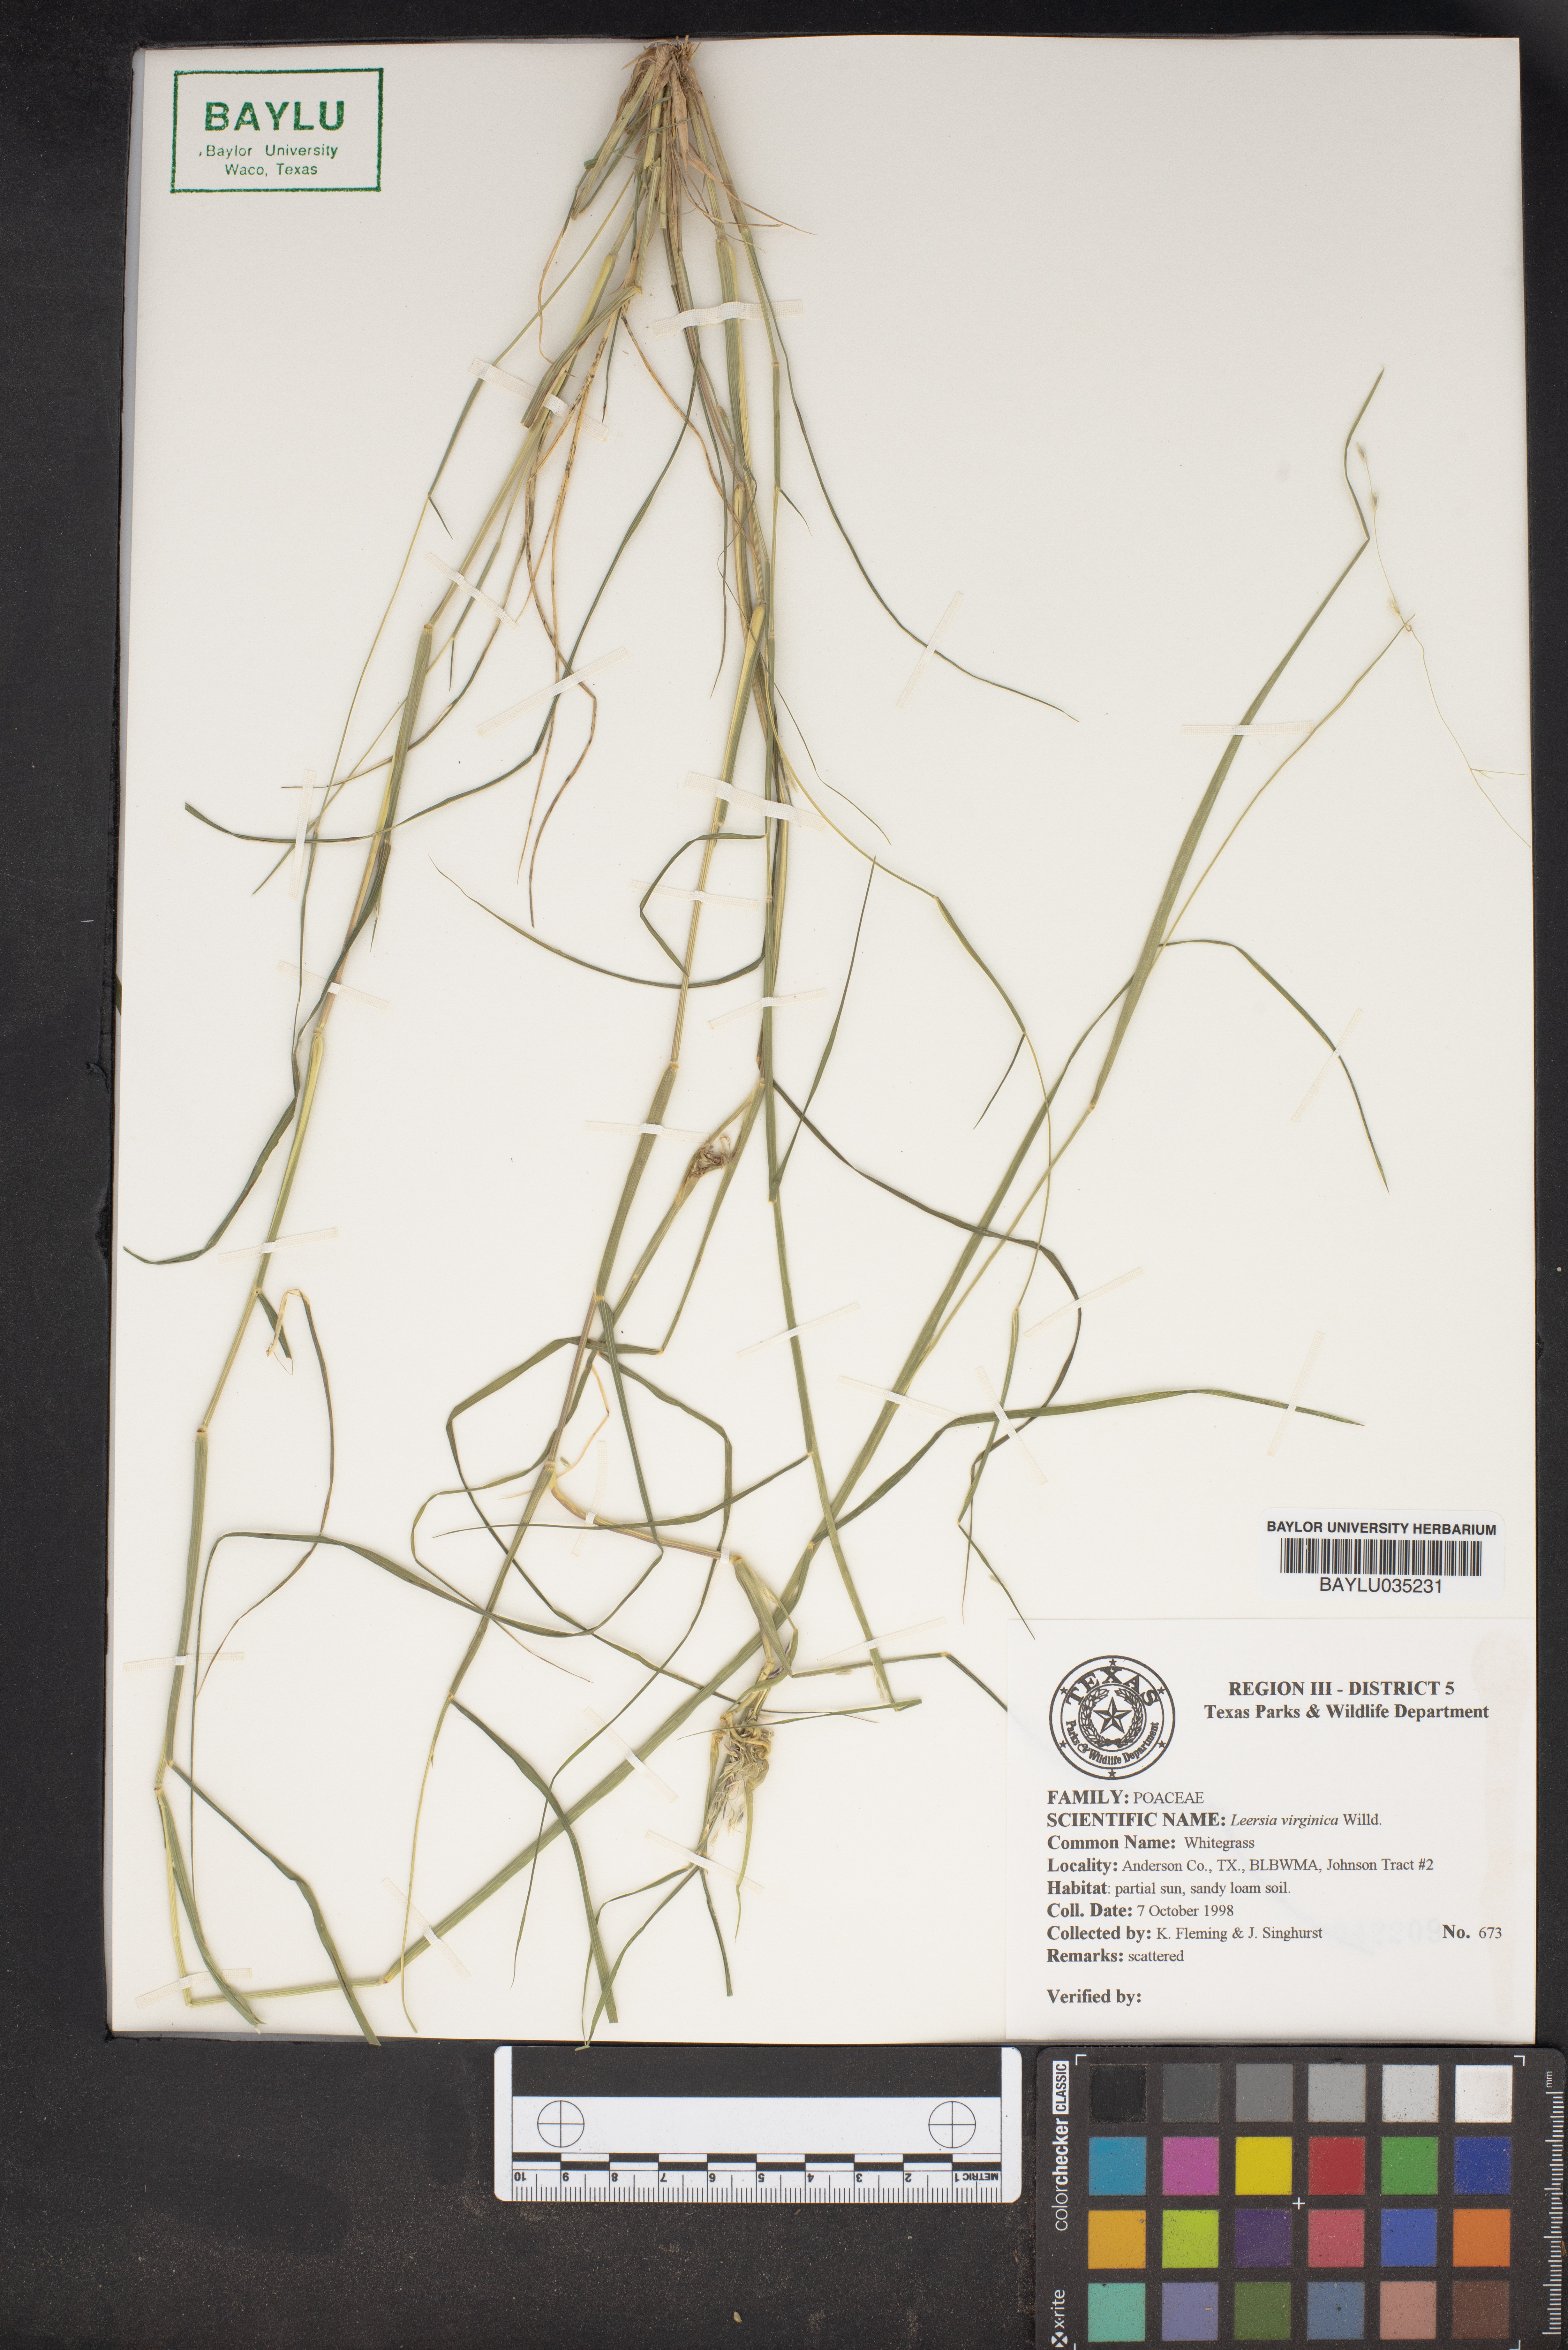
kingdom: Plantae
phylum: Tracheophyta
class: Liliopsida
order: Poales
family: Poaceae
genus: Leersia
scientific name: Leersia virginica
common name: White cutgrass
